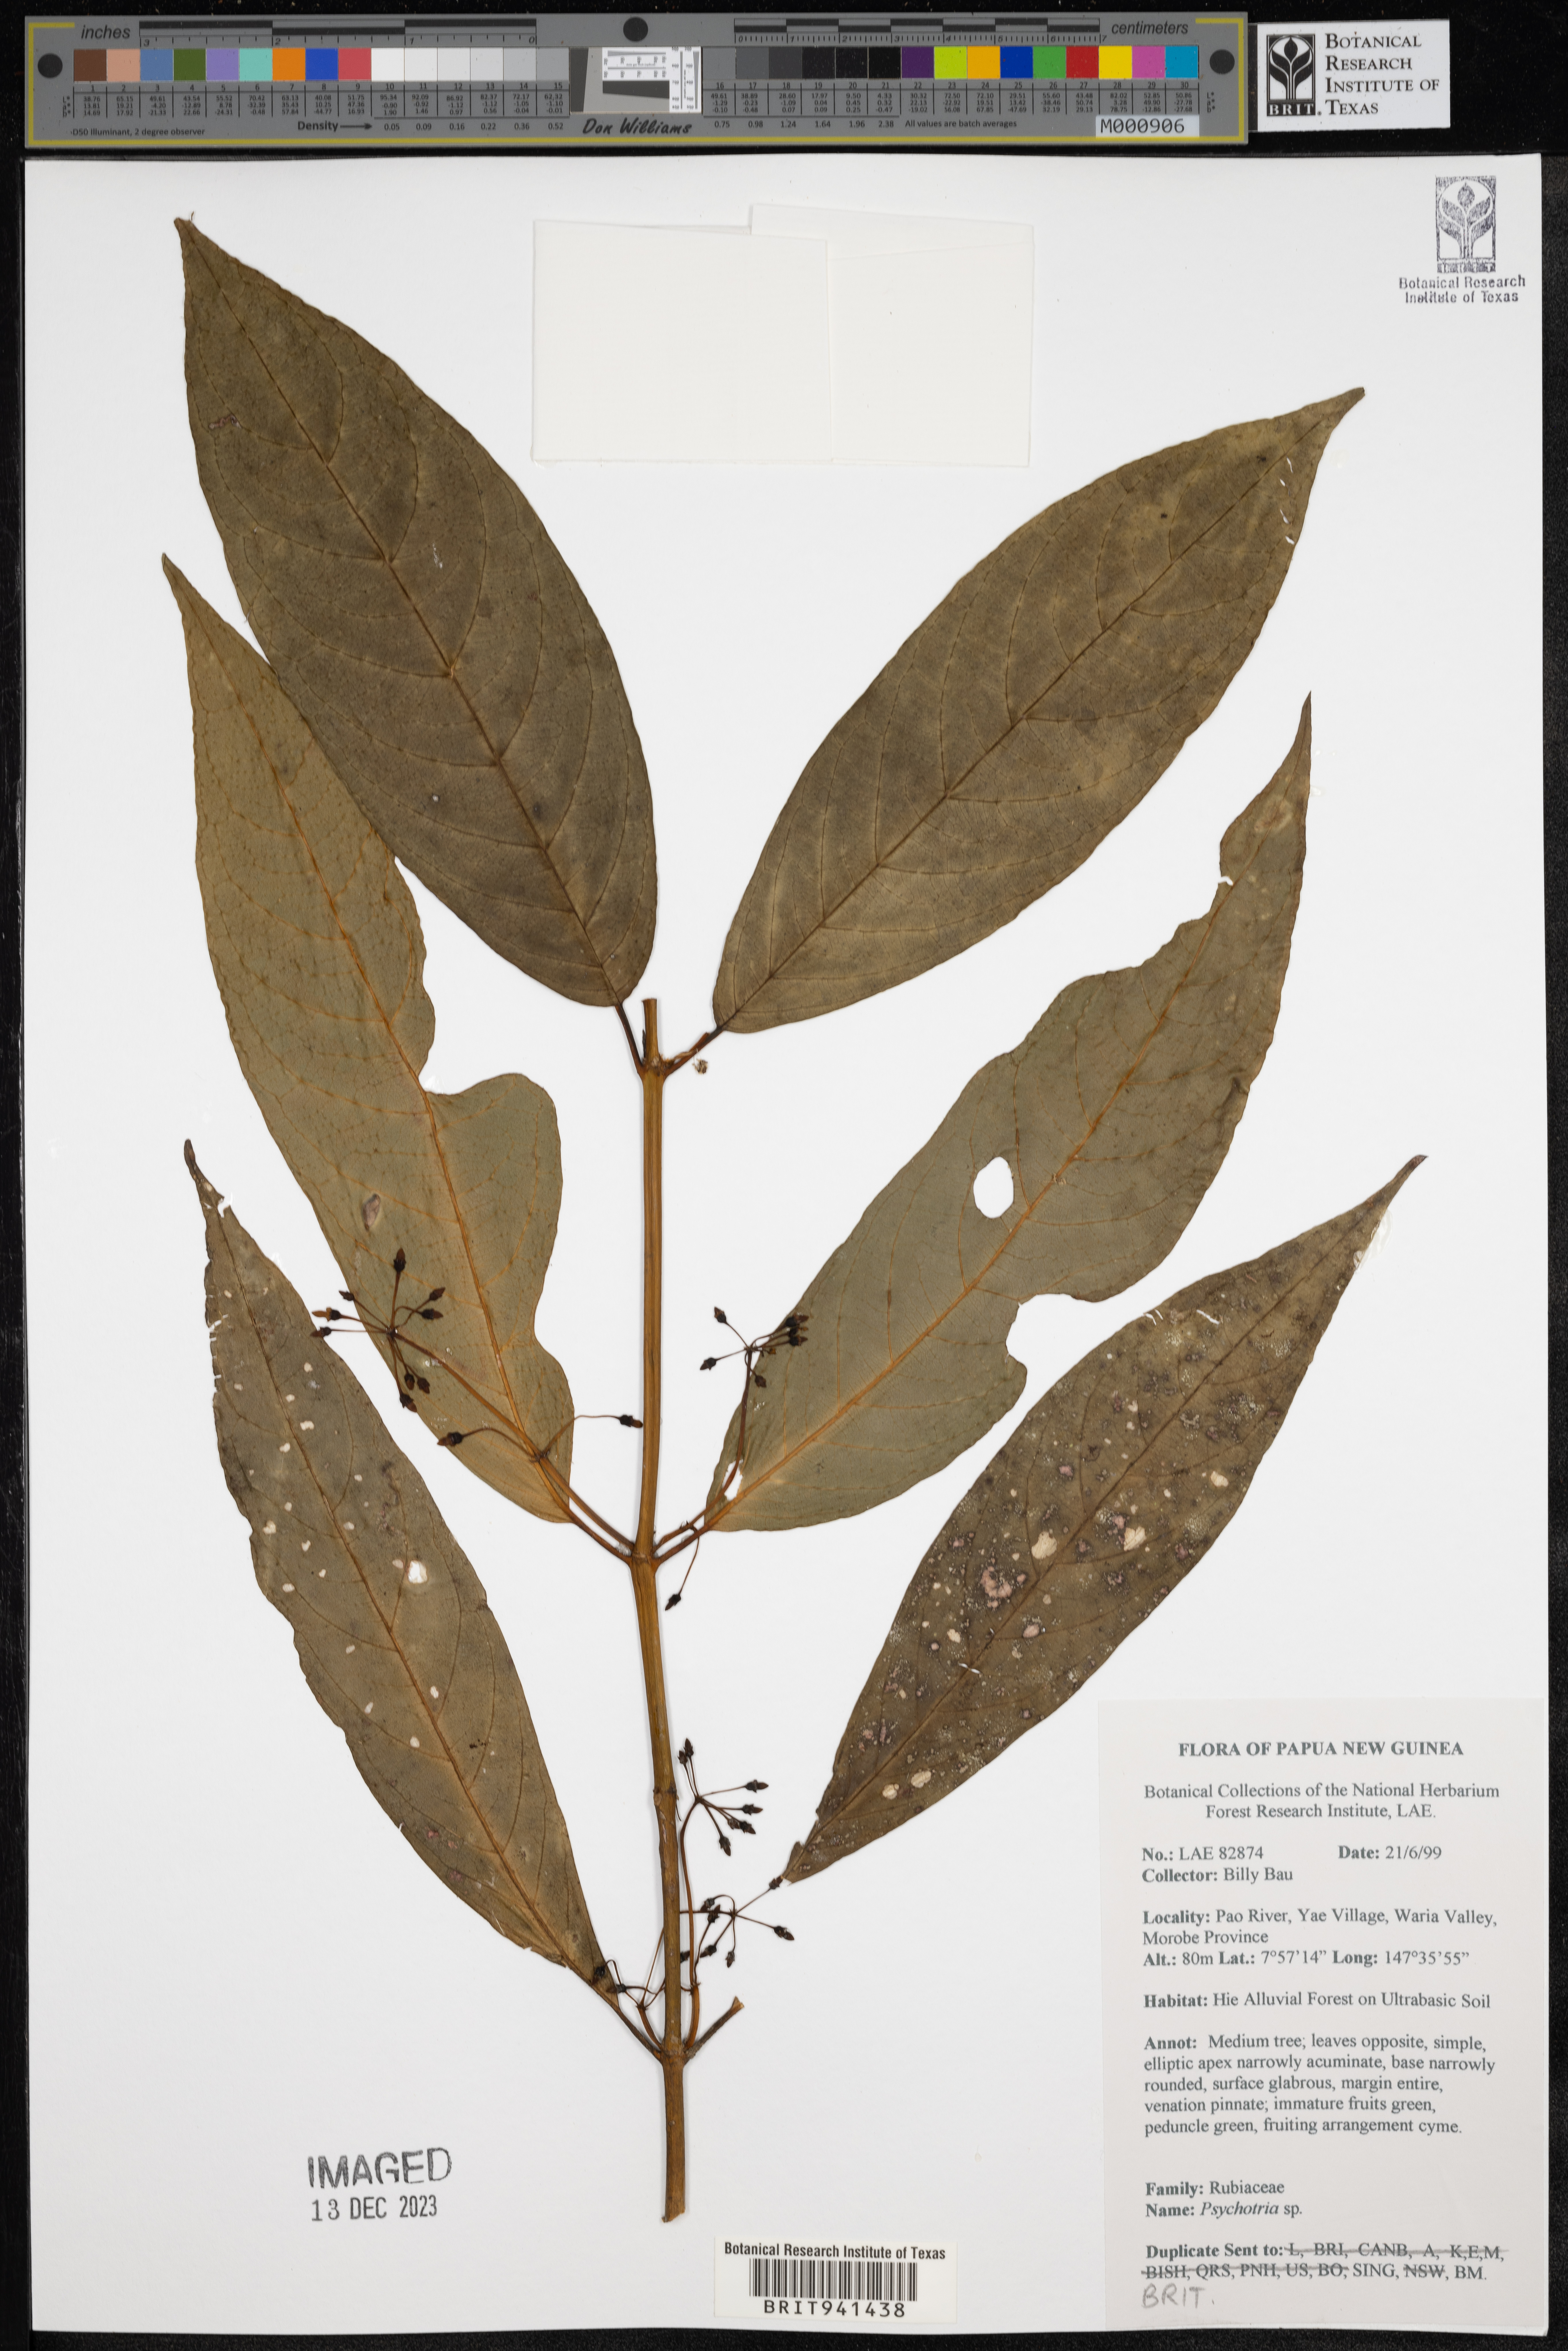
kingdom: Plantae
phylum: Tracheophyta
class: Magnoliopsida
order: Gentianales
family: Rubiaceae
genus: Psychotria
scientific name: Psychotria
